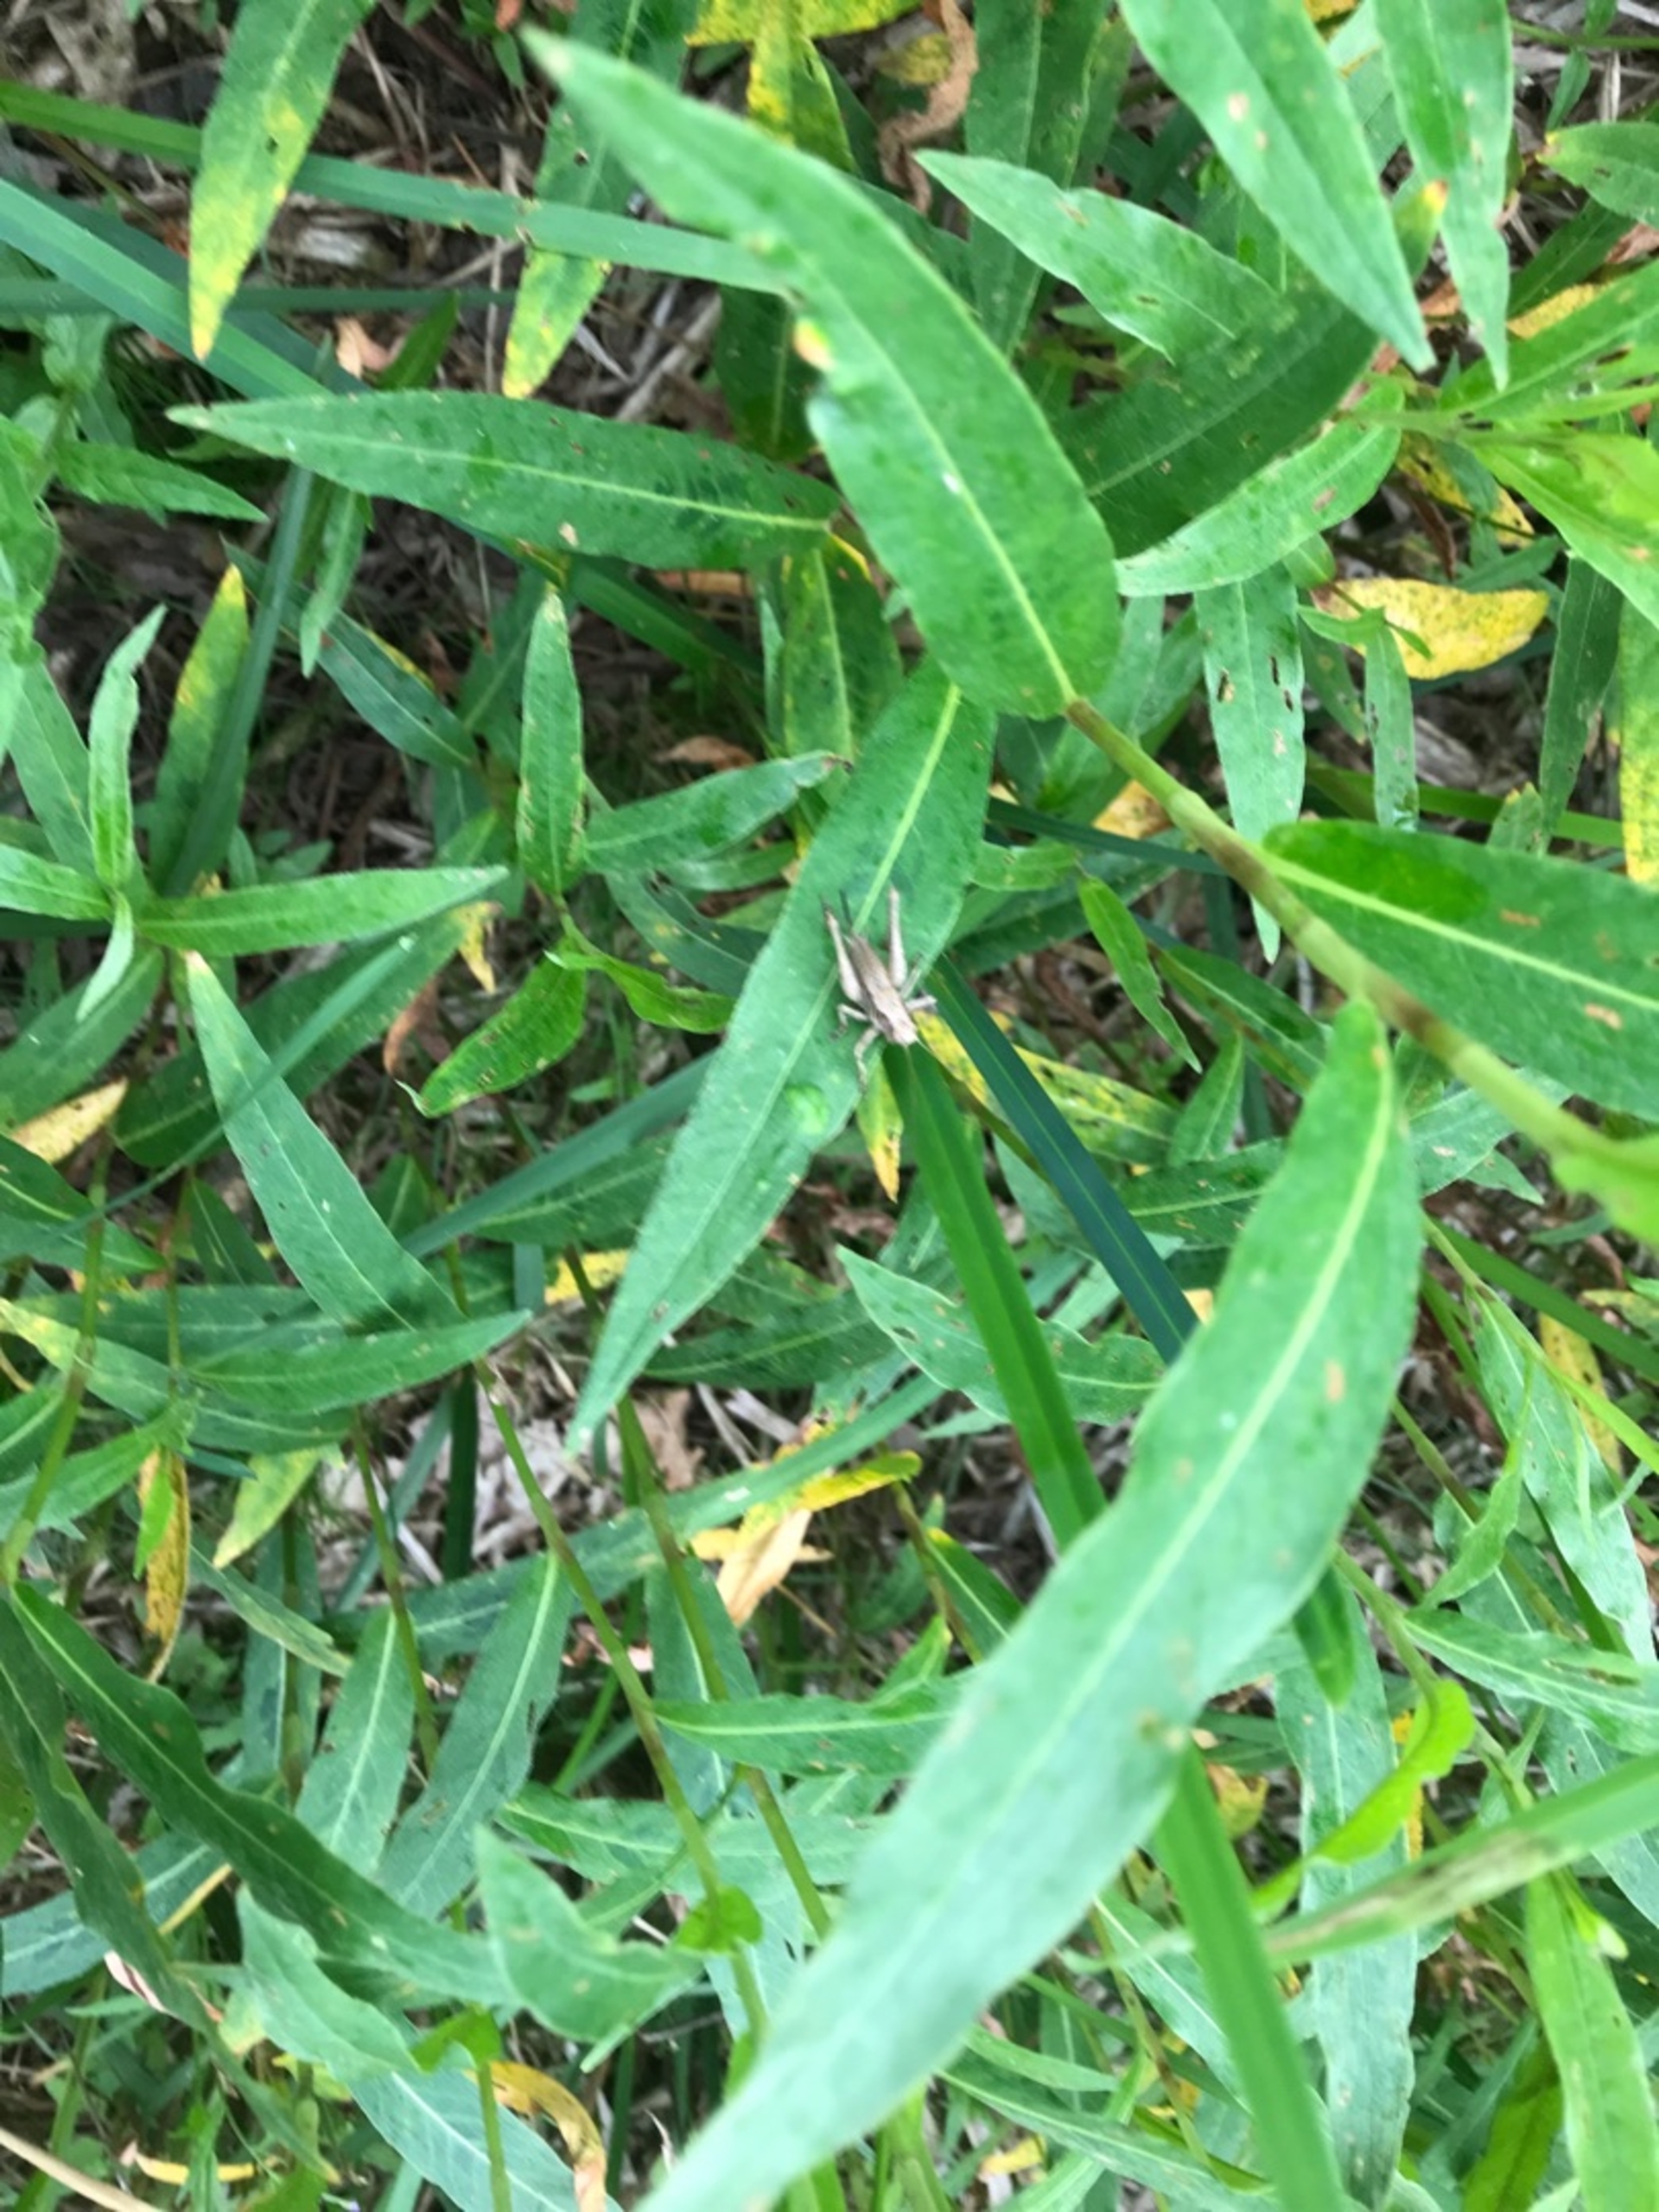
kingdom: Animalia
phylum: Arthropoda
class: Insecta
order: Orthoptera
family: Tettigoniidae
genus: Pholidoptera
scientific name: Pholidoptera griseoaptera
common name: Buskgræshoppe
